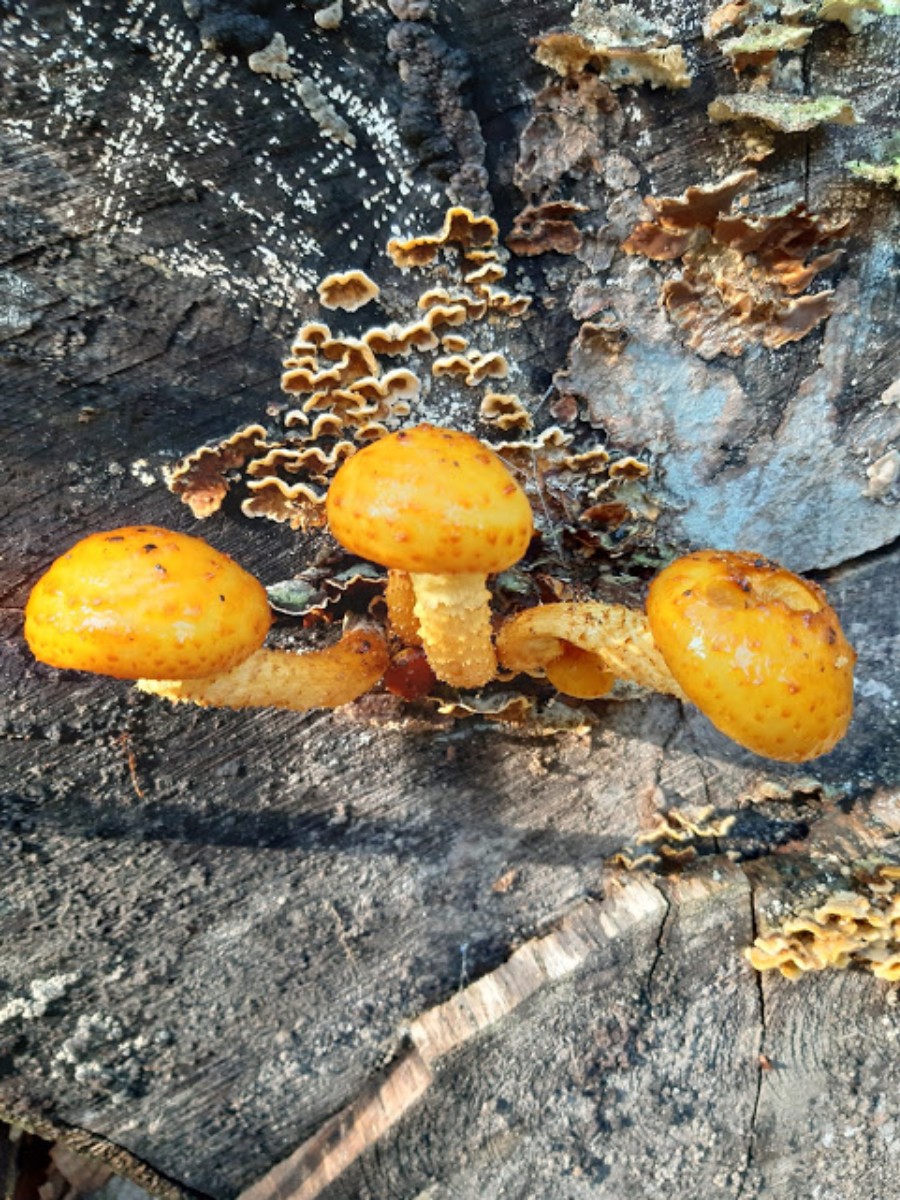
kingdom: Fungi
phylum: Basidiomycota
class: Agaricomycetes
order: Agaricales
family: Strophariaceae
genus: Pholiota
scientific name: Pholiota adiposa
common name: højtsiddende skælhat
